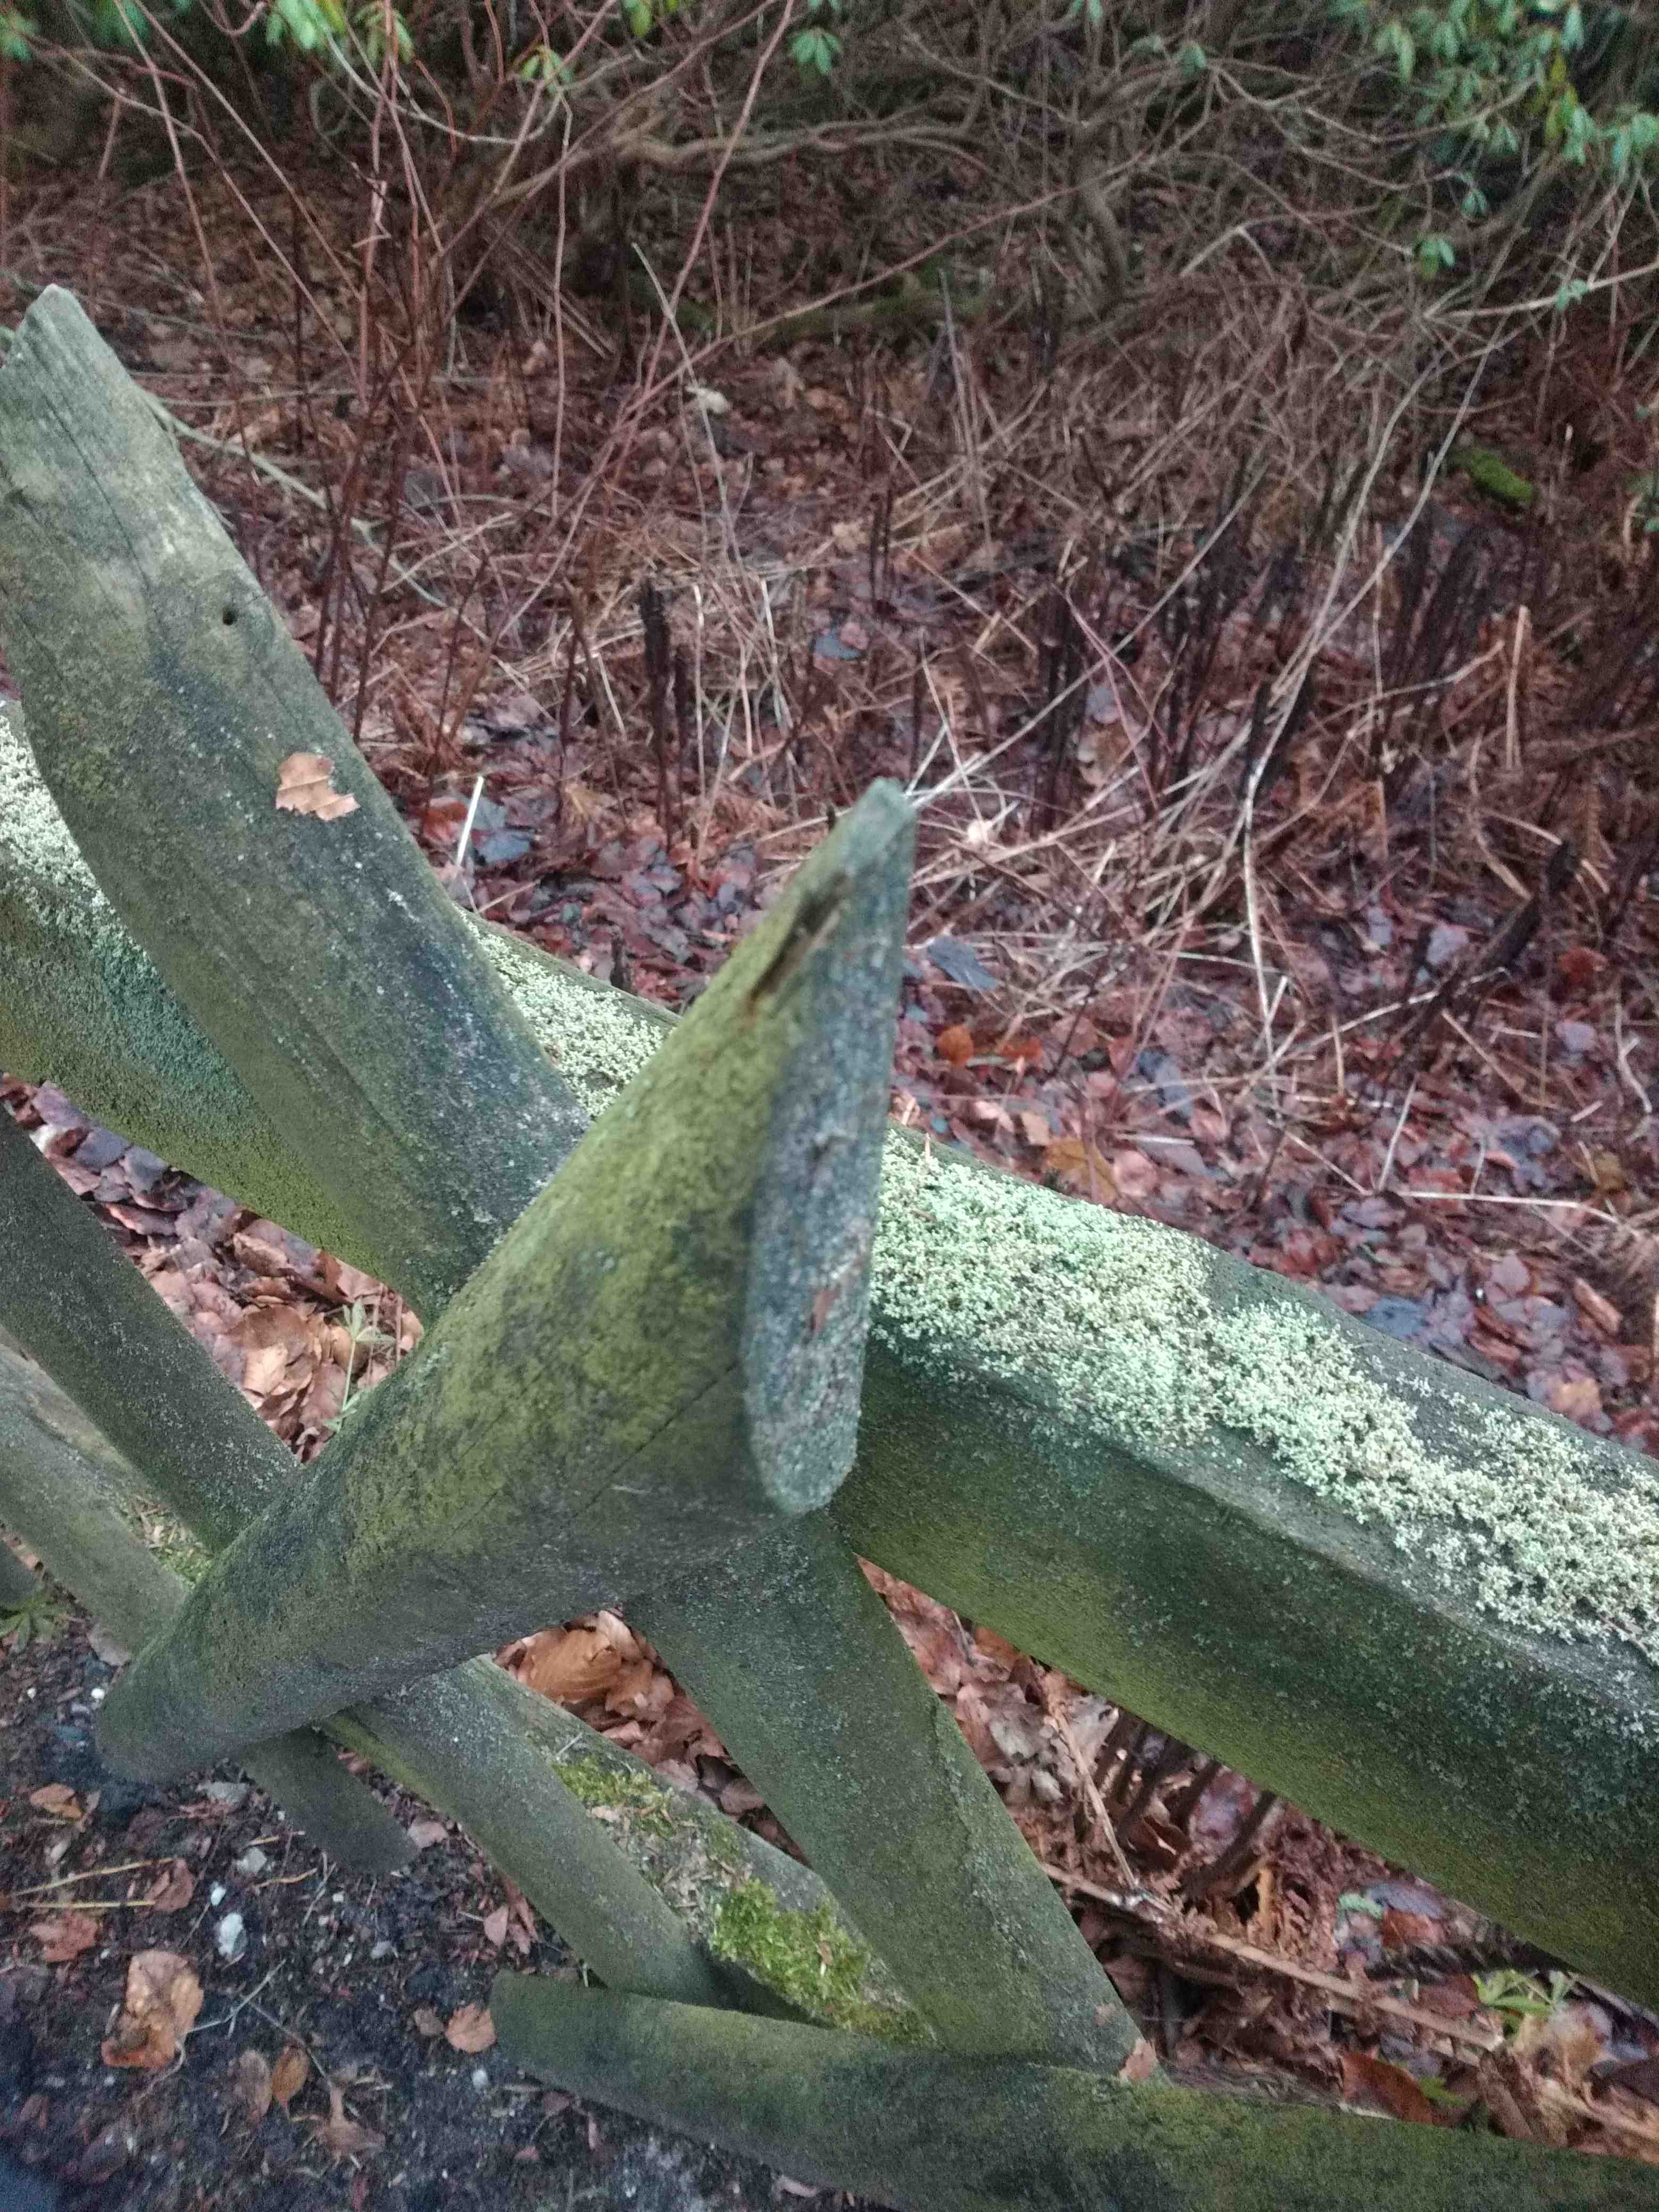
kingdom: Fungi
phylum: Ascomycota
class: Lecanoromycetes
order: Lecanorales
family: Stereocaulaceae
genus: Stereocaulon
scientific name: Stereocaulon nanodes
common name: liden korallav
